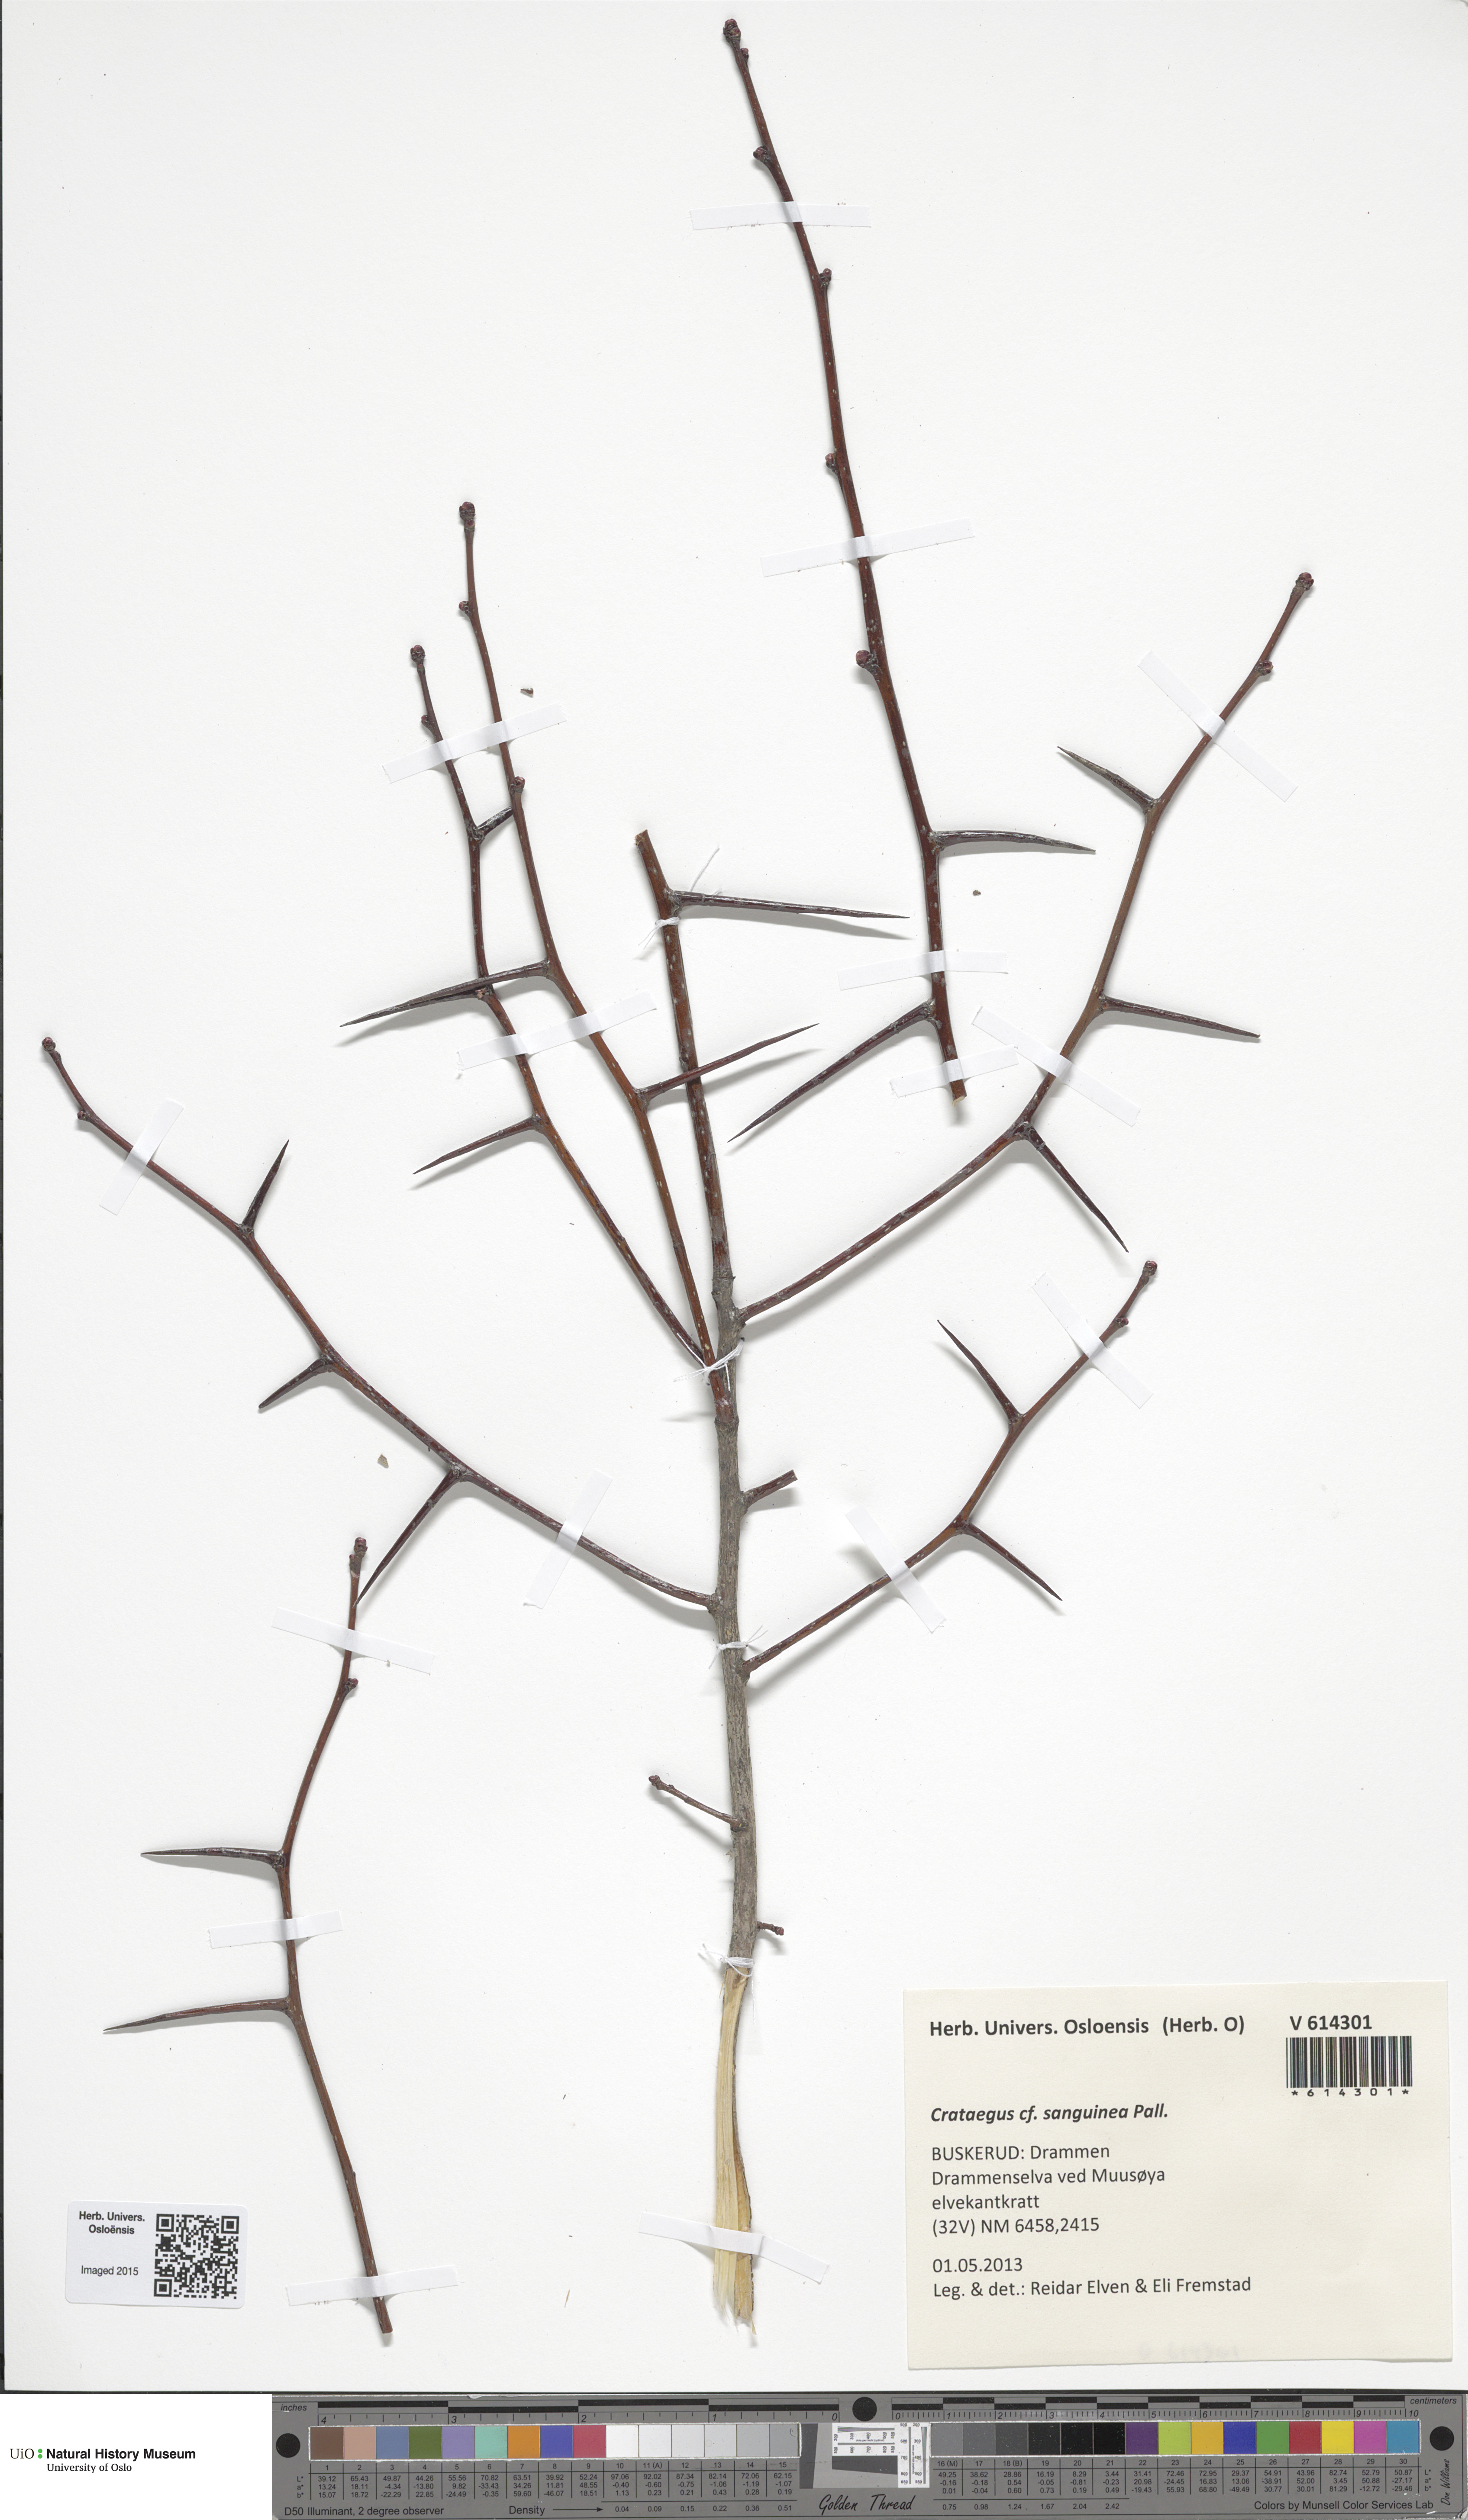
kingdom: Plantae
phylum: Tracheophyta
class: Magnoliopsida
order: Rosales
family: Rosaceae
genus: Crataegus
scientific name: Crataegus sanguinea
